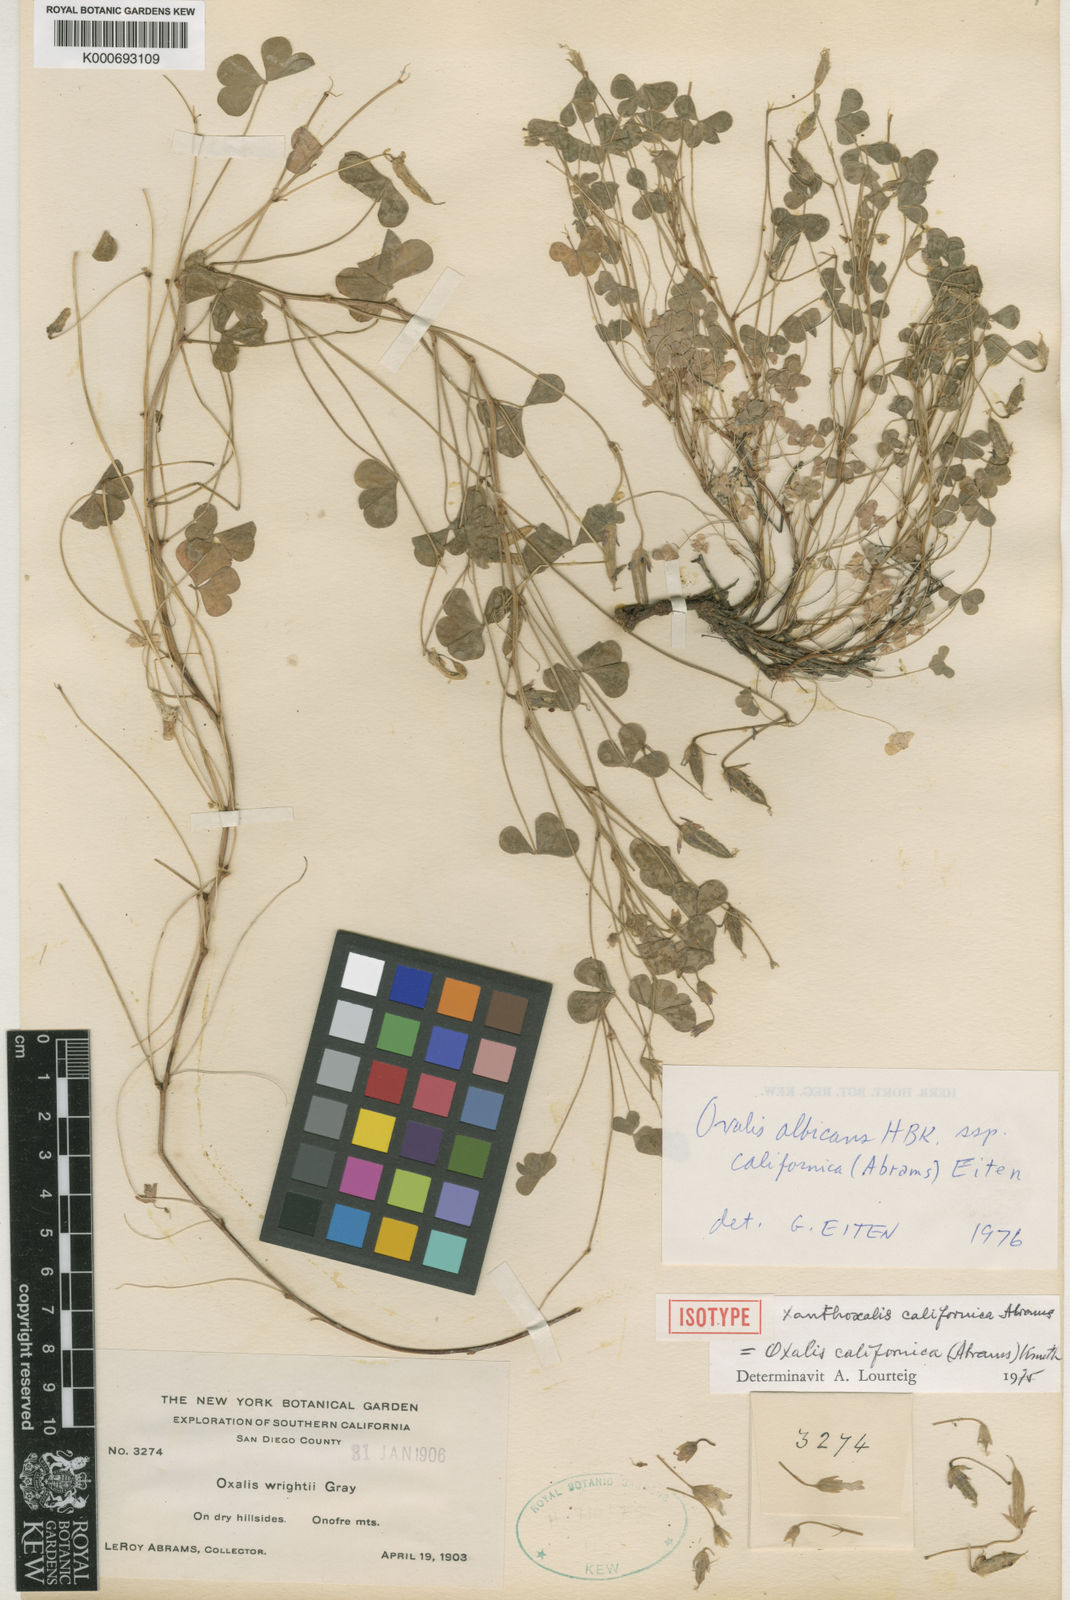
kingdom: Plantae
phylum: Tracheophyta
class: Magnoliopsida
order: Oxalidales
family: Oxalidaceae
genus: Oxalis
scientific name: Oxalis californica
